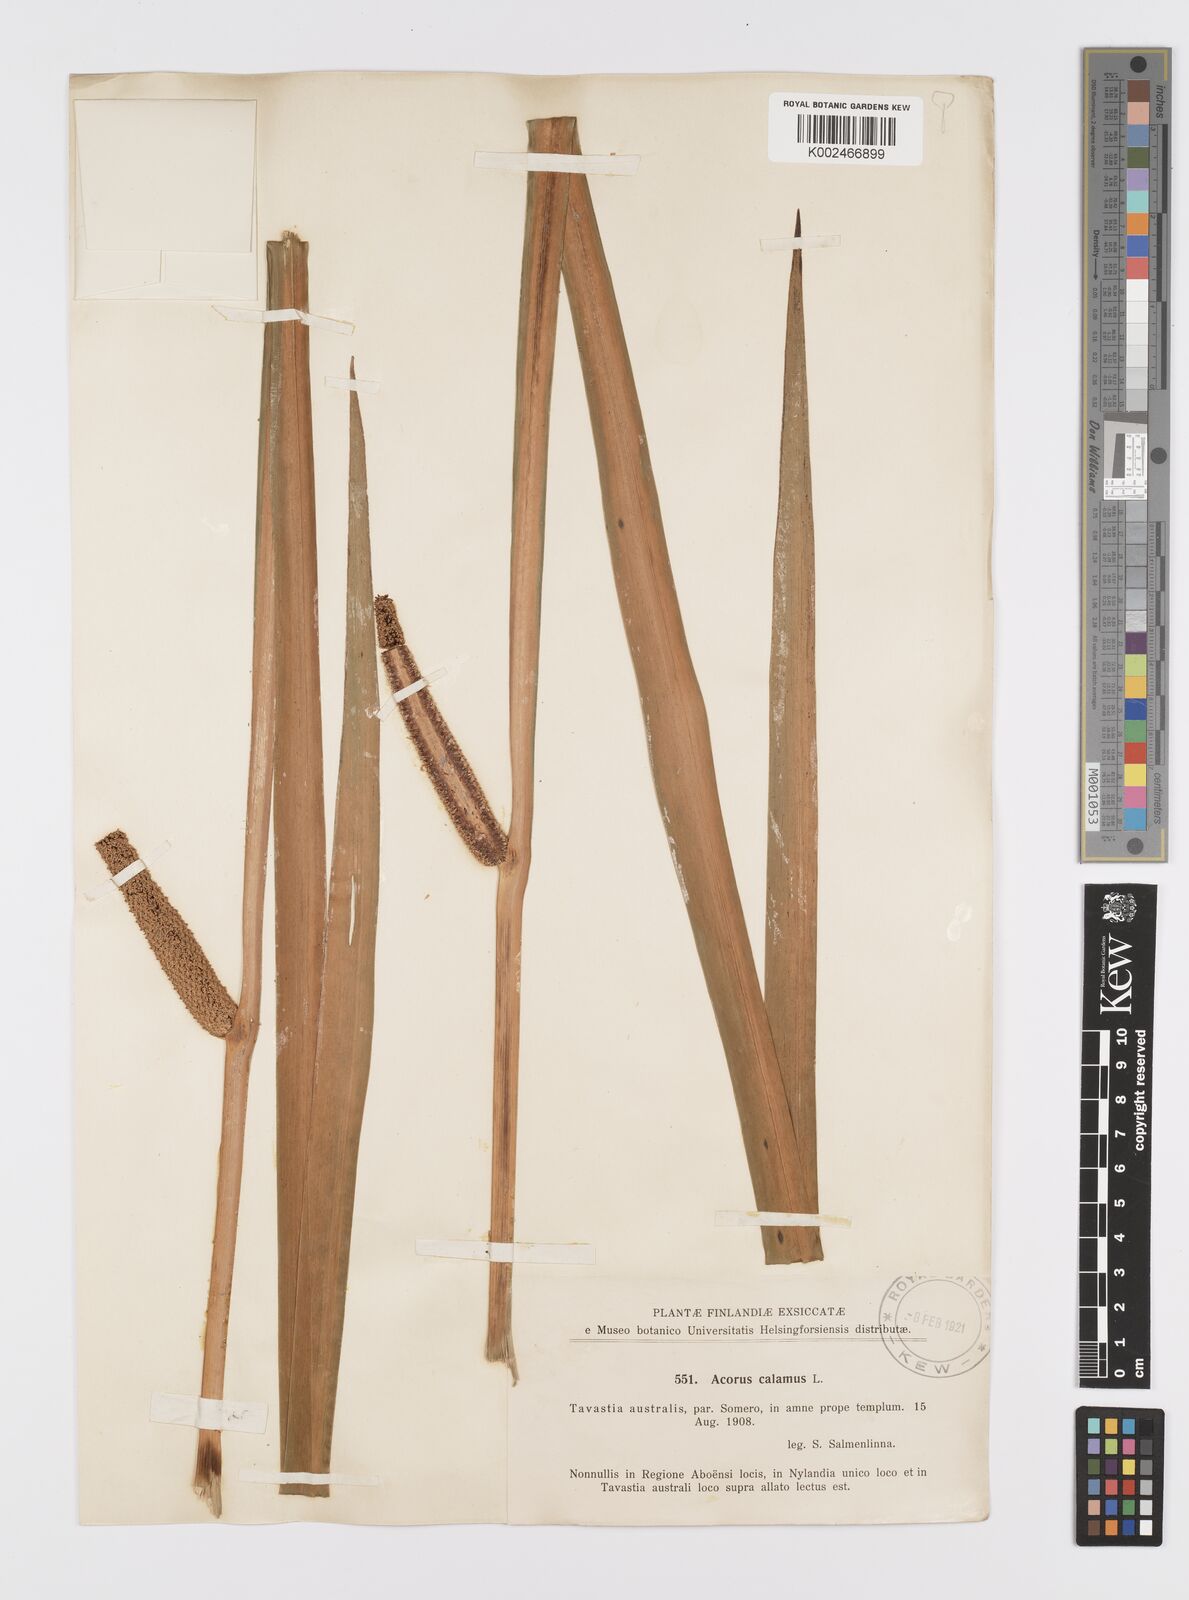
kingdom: Plantae
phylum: Tracheophyta
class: Liliopsida
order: Acorales
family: Acoraceae
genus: Acorus
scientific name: Acorus calamus
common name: Sweet-flag
